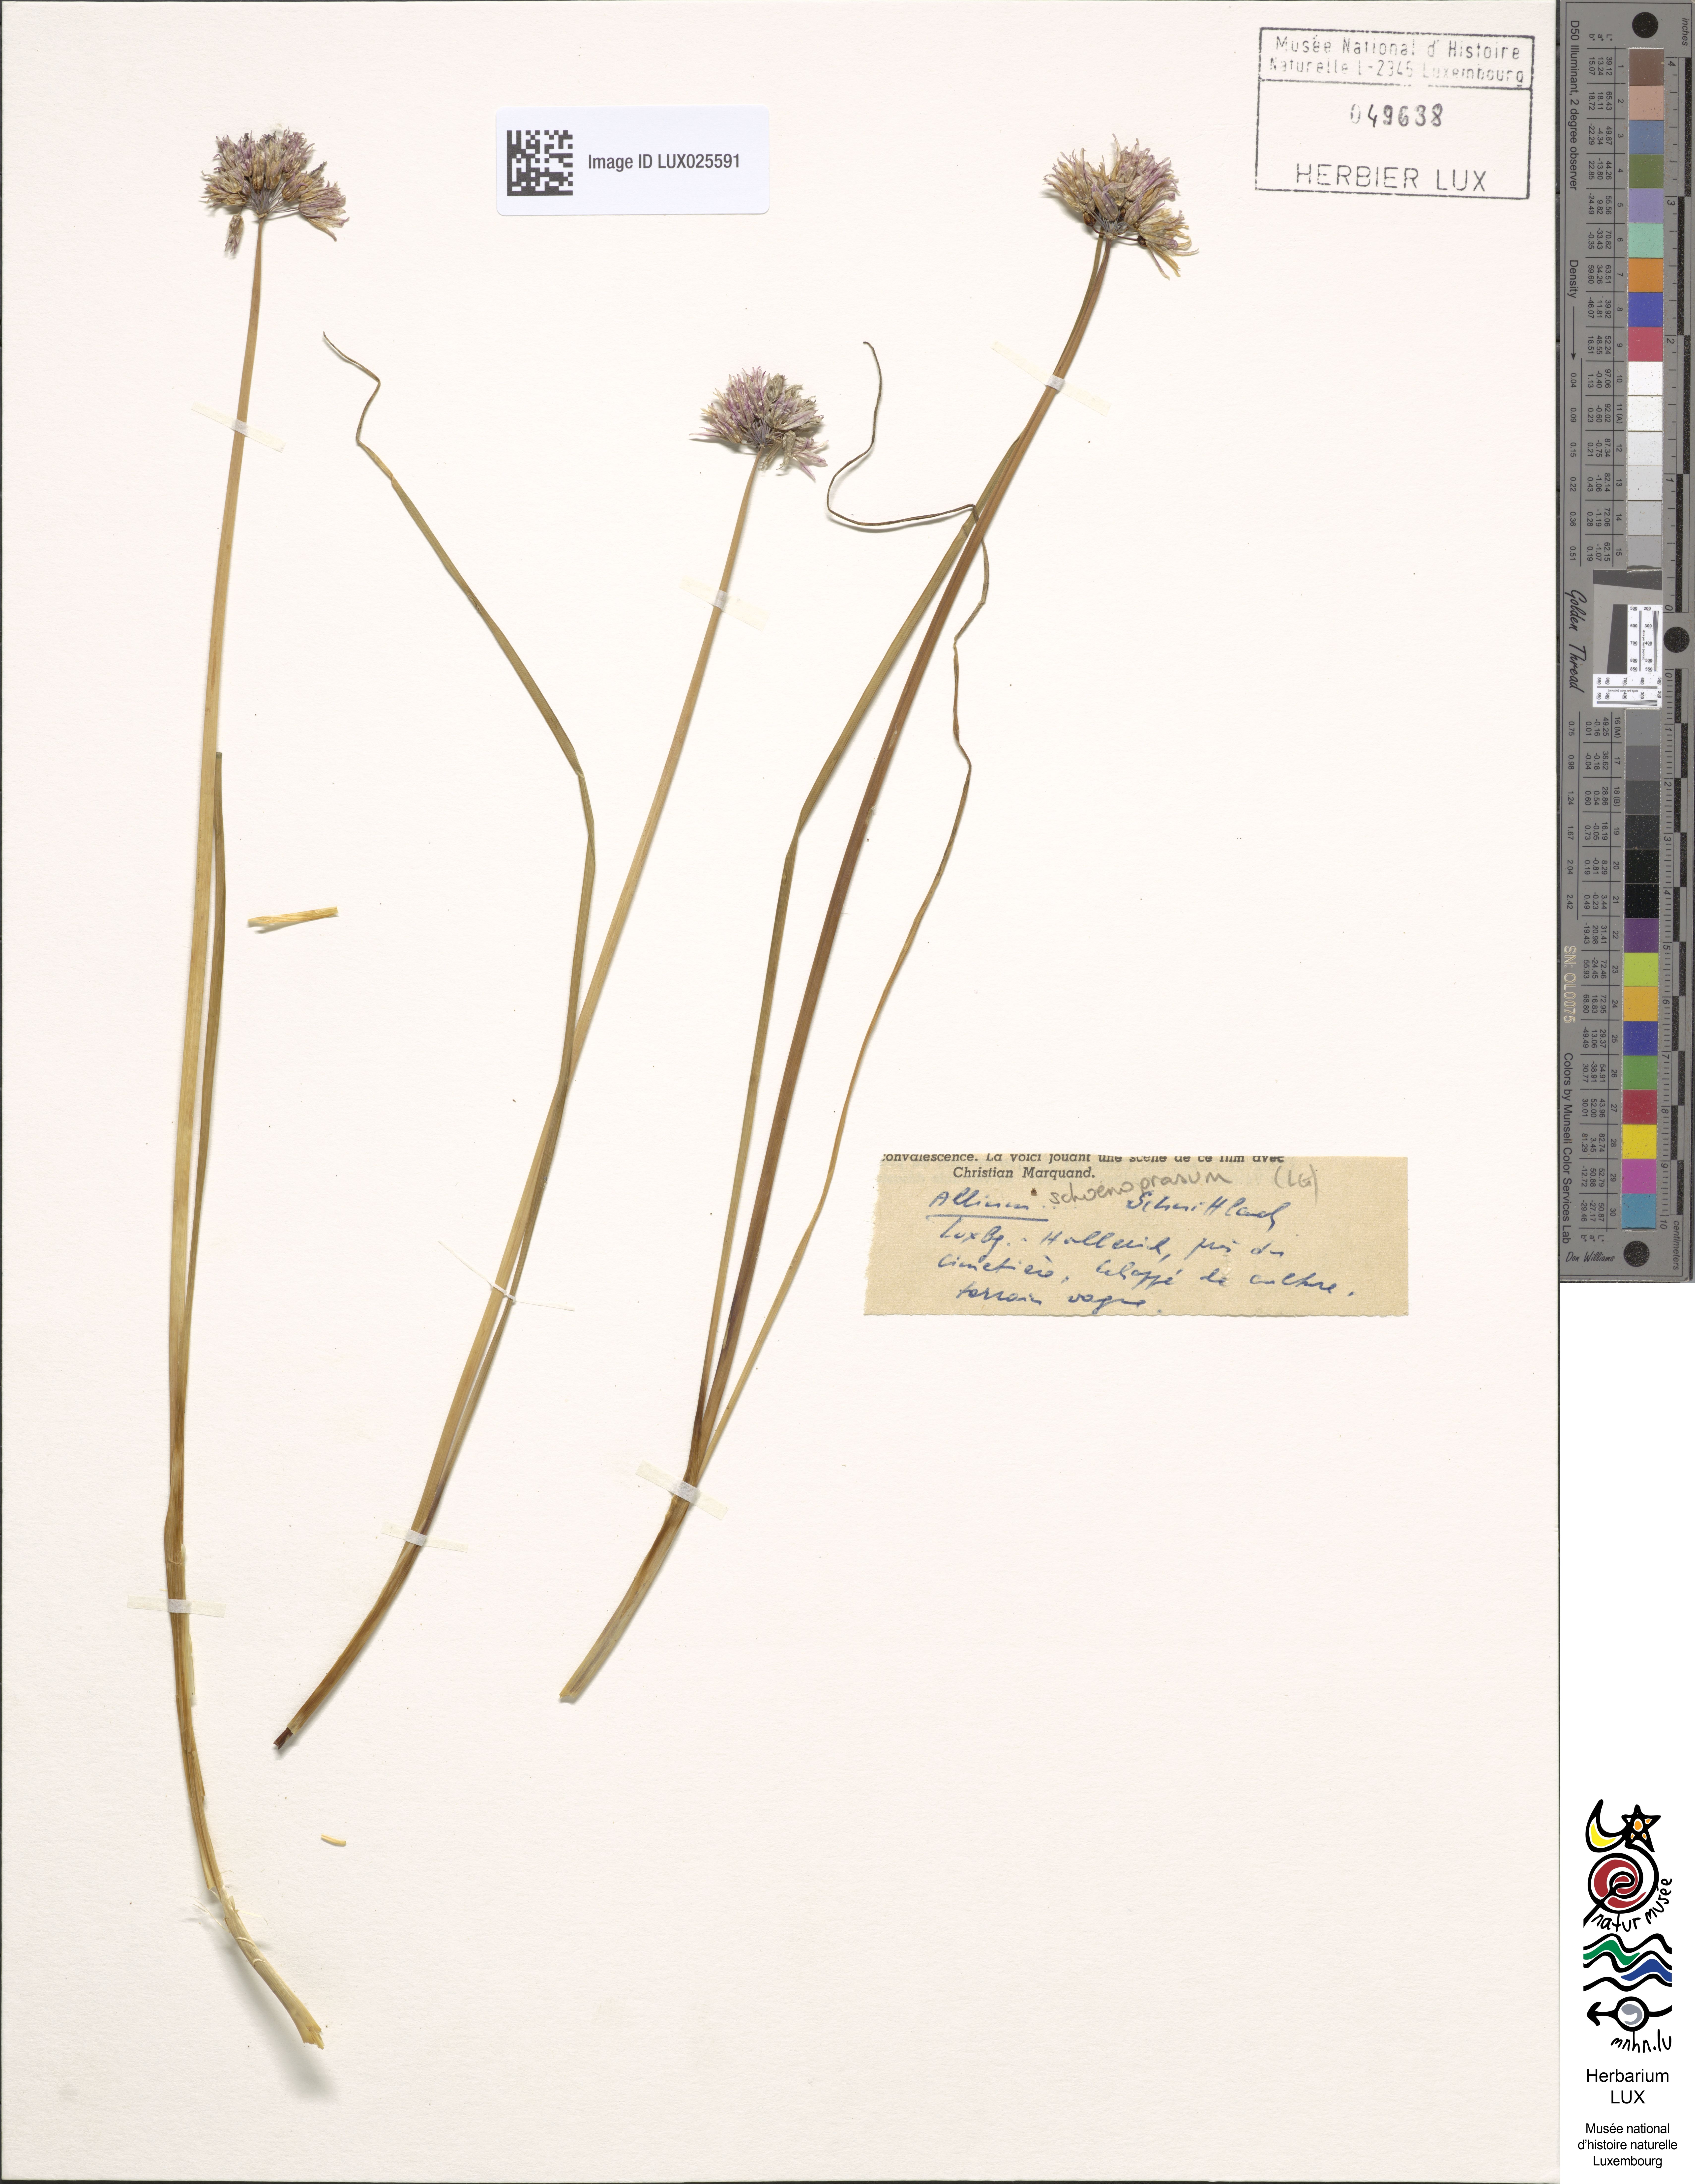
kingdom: Plantae
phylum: Tracheophyta
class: Liliopsida
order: Asparagales
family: Amaryllidaceae
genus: Allium
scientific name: Allium schoenoprasum
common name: Chives
